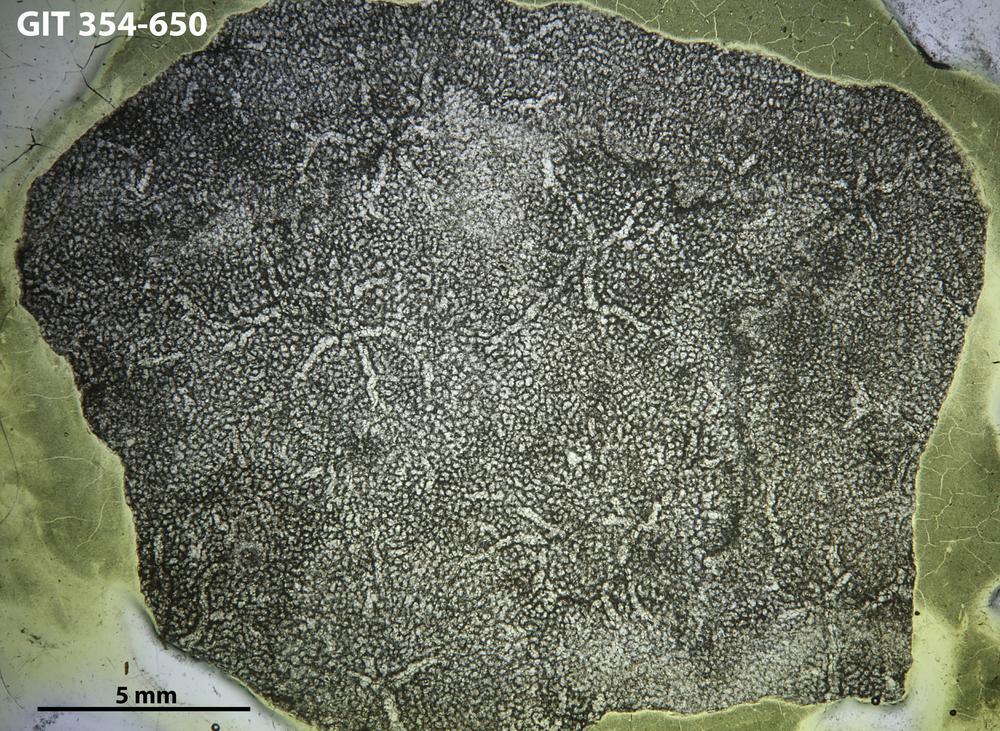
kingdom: Animalia
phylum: Porifera
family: Pseudolabechiidae
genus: Vikingia
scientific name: Vikingia
